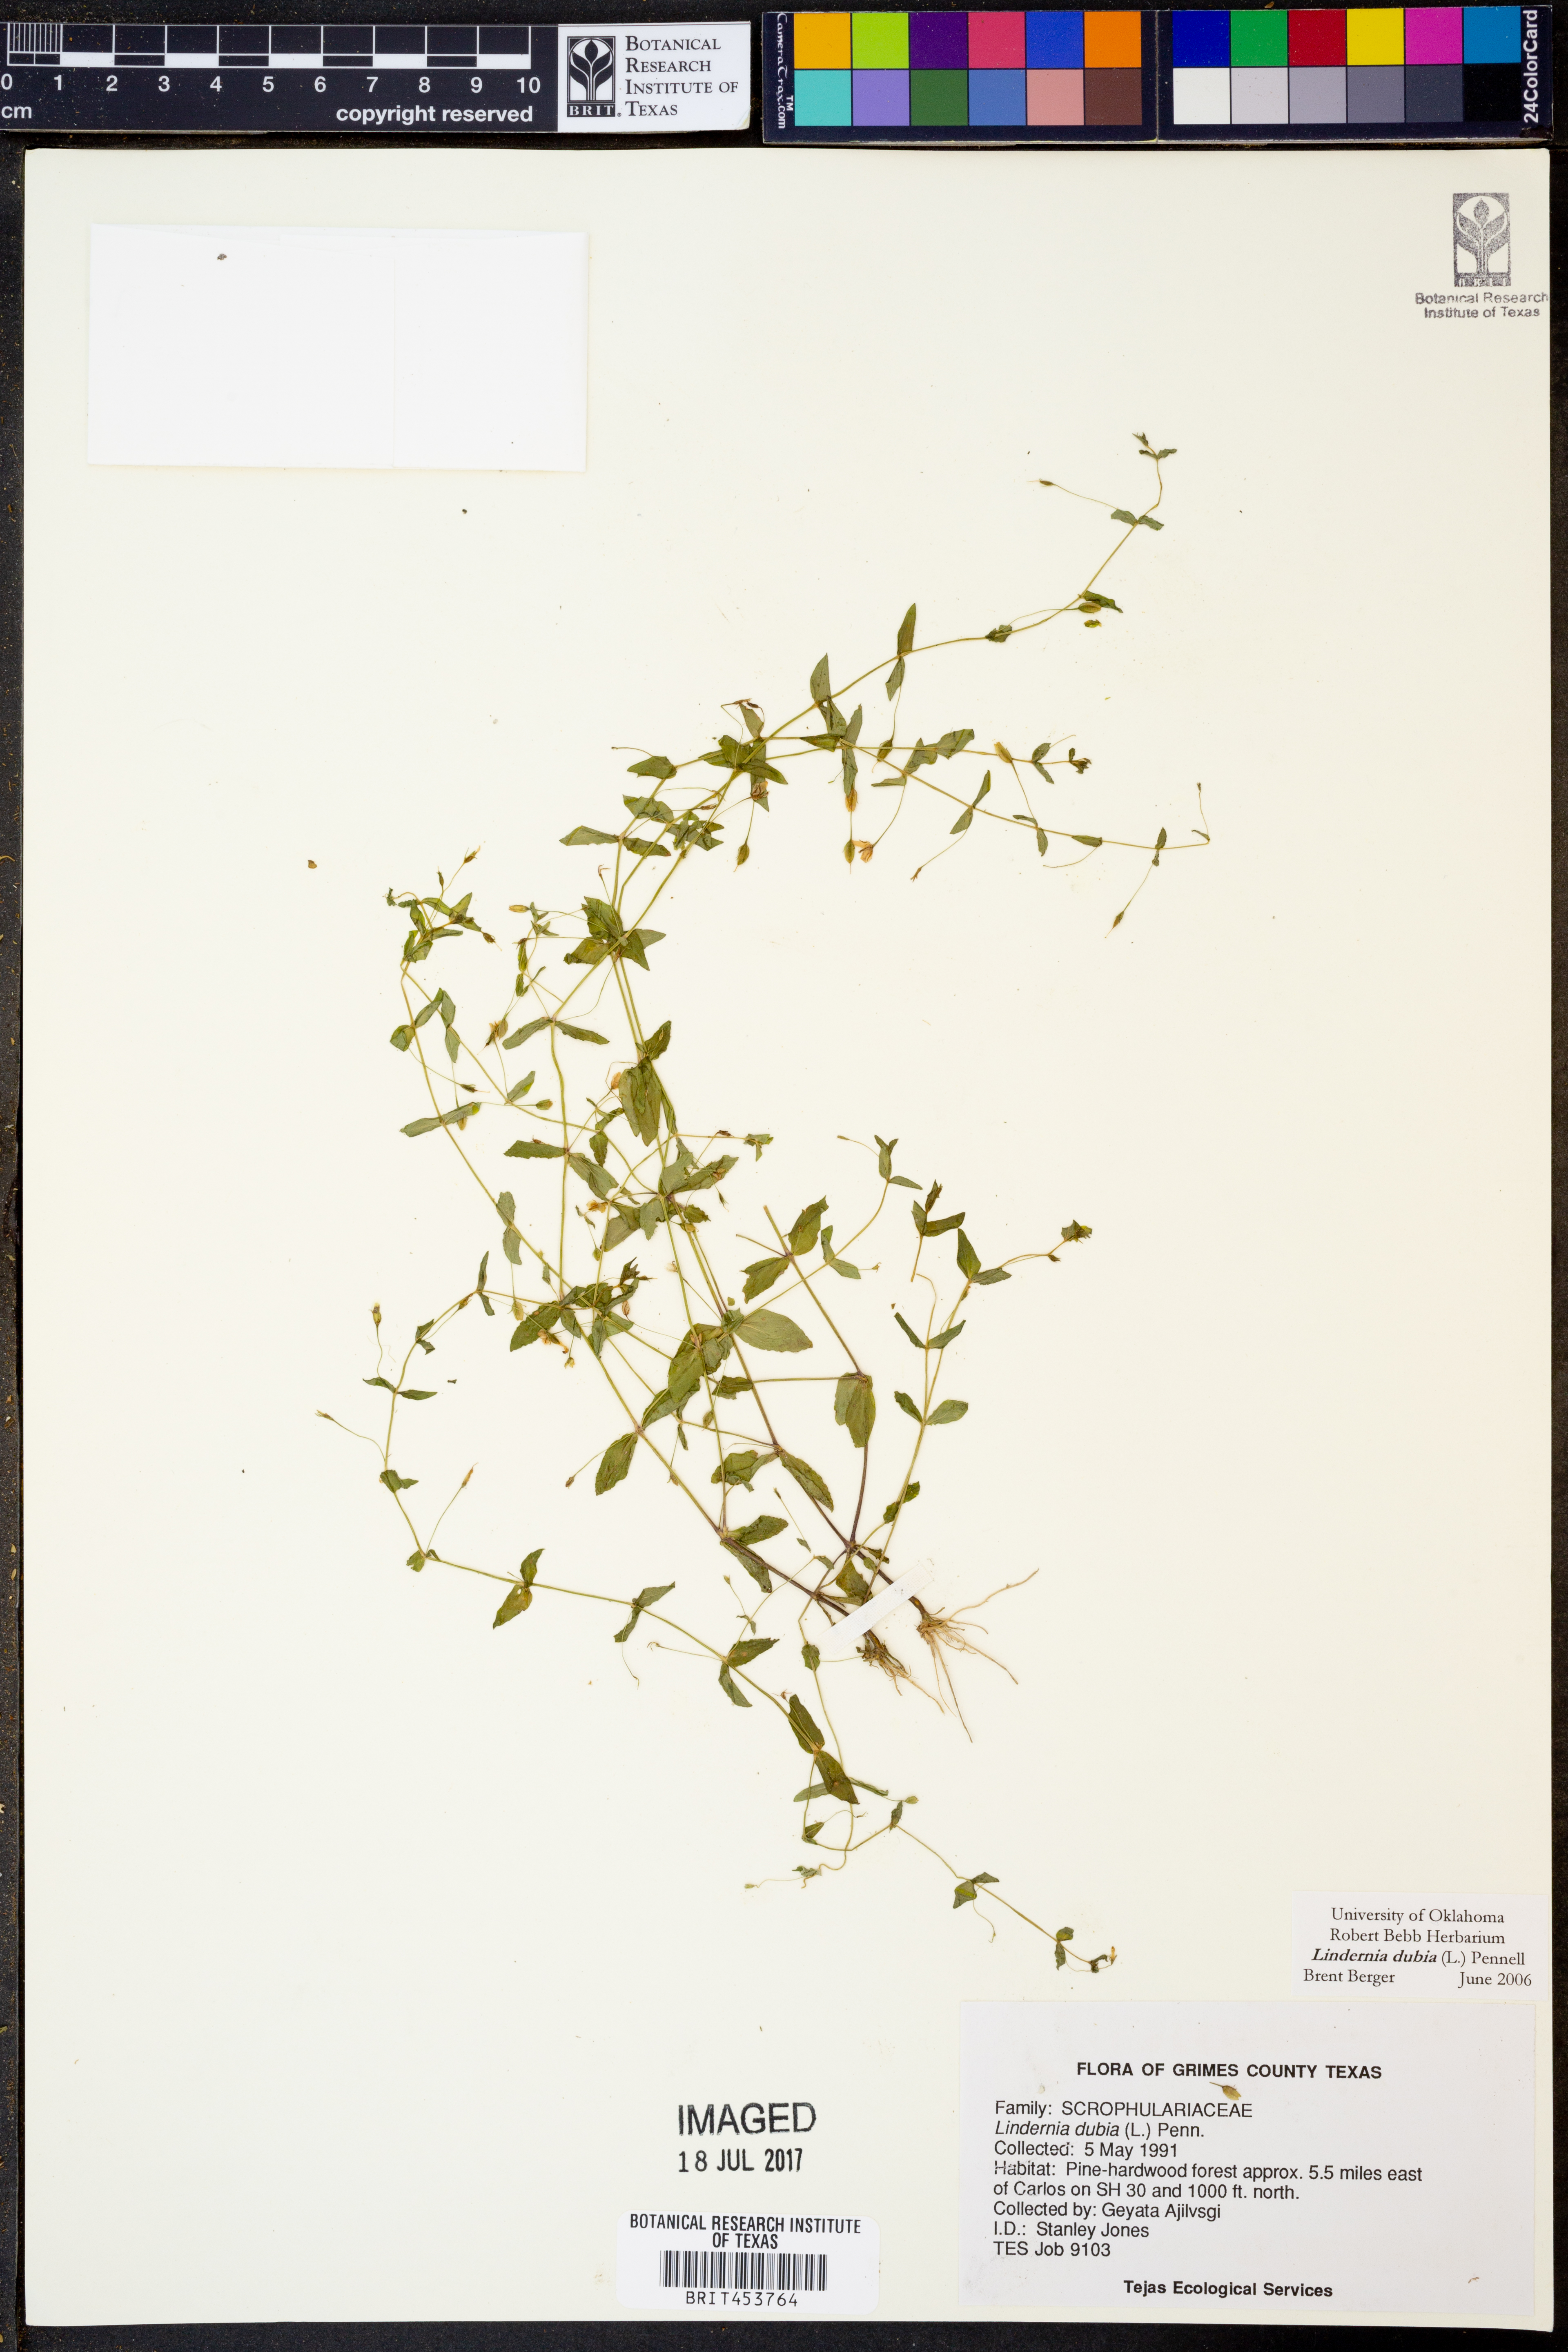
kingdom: Plantae
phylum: Tracheophyta
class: Magnoliopsida
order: Lamiales
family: Linderniaceae
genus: Lindernia
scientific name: Lindernia dubia
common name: Annual false pimpernel
